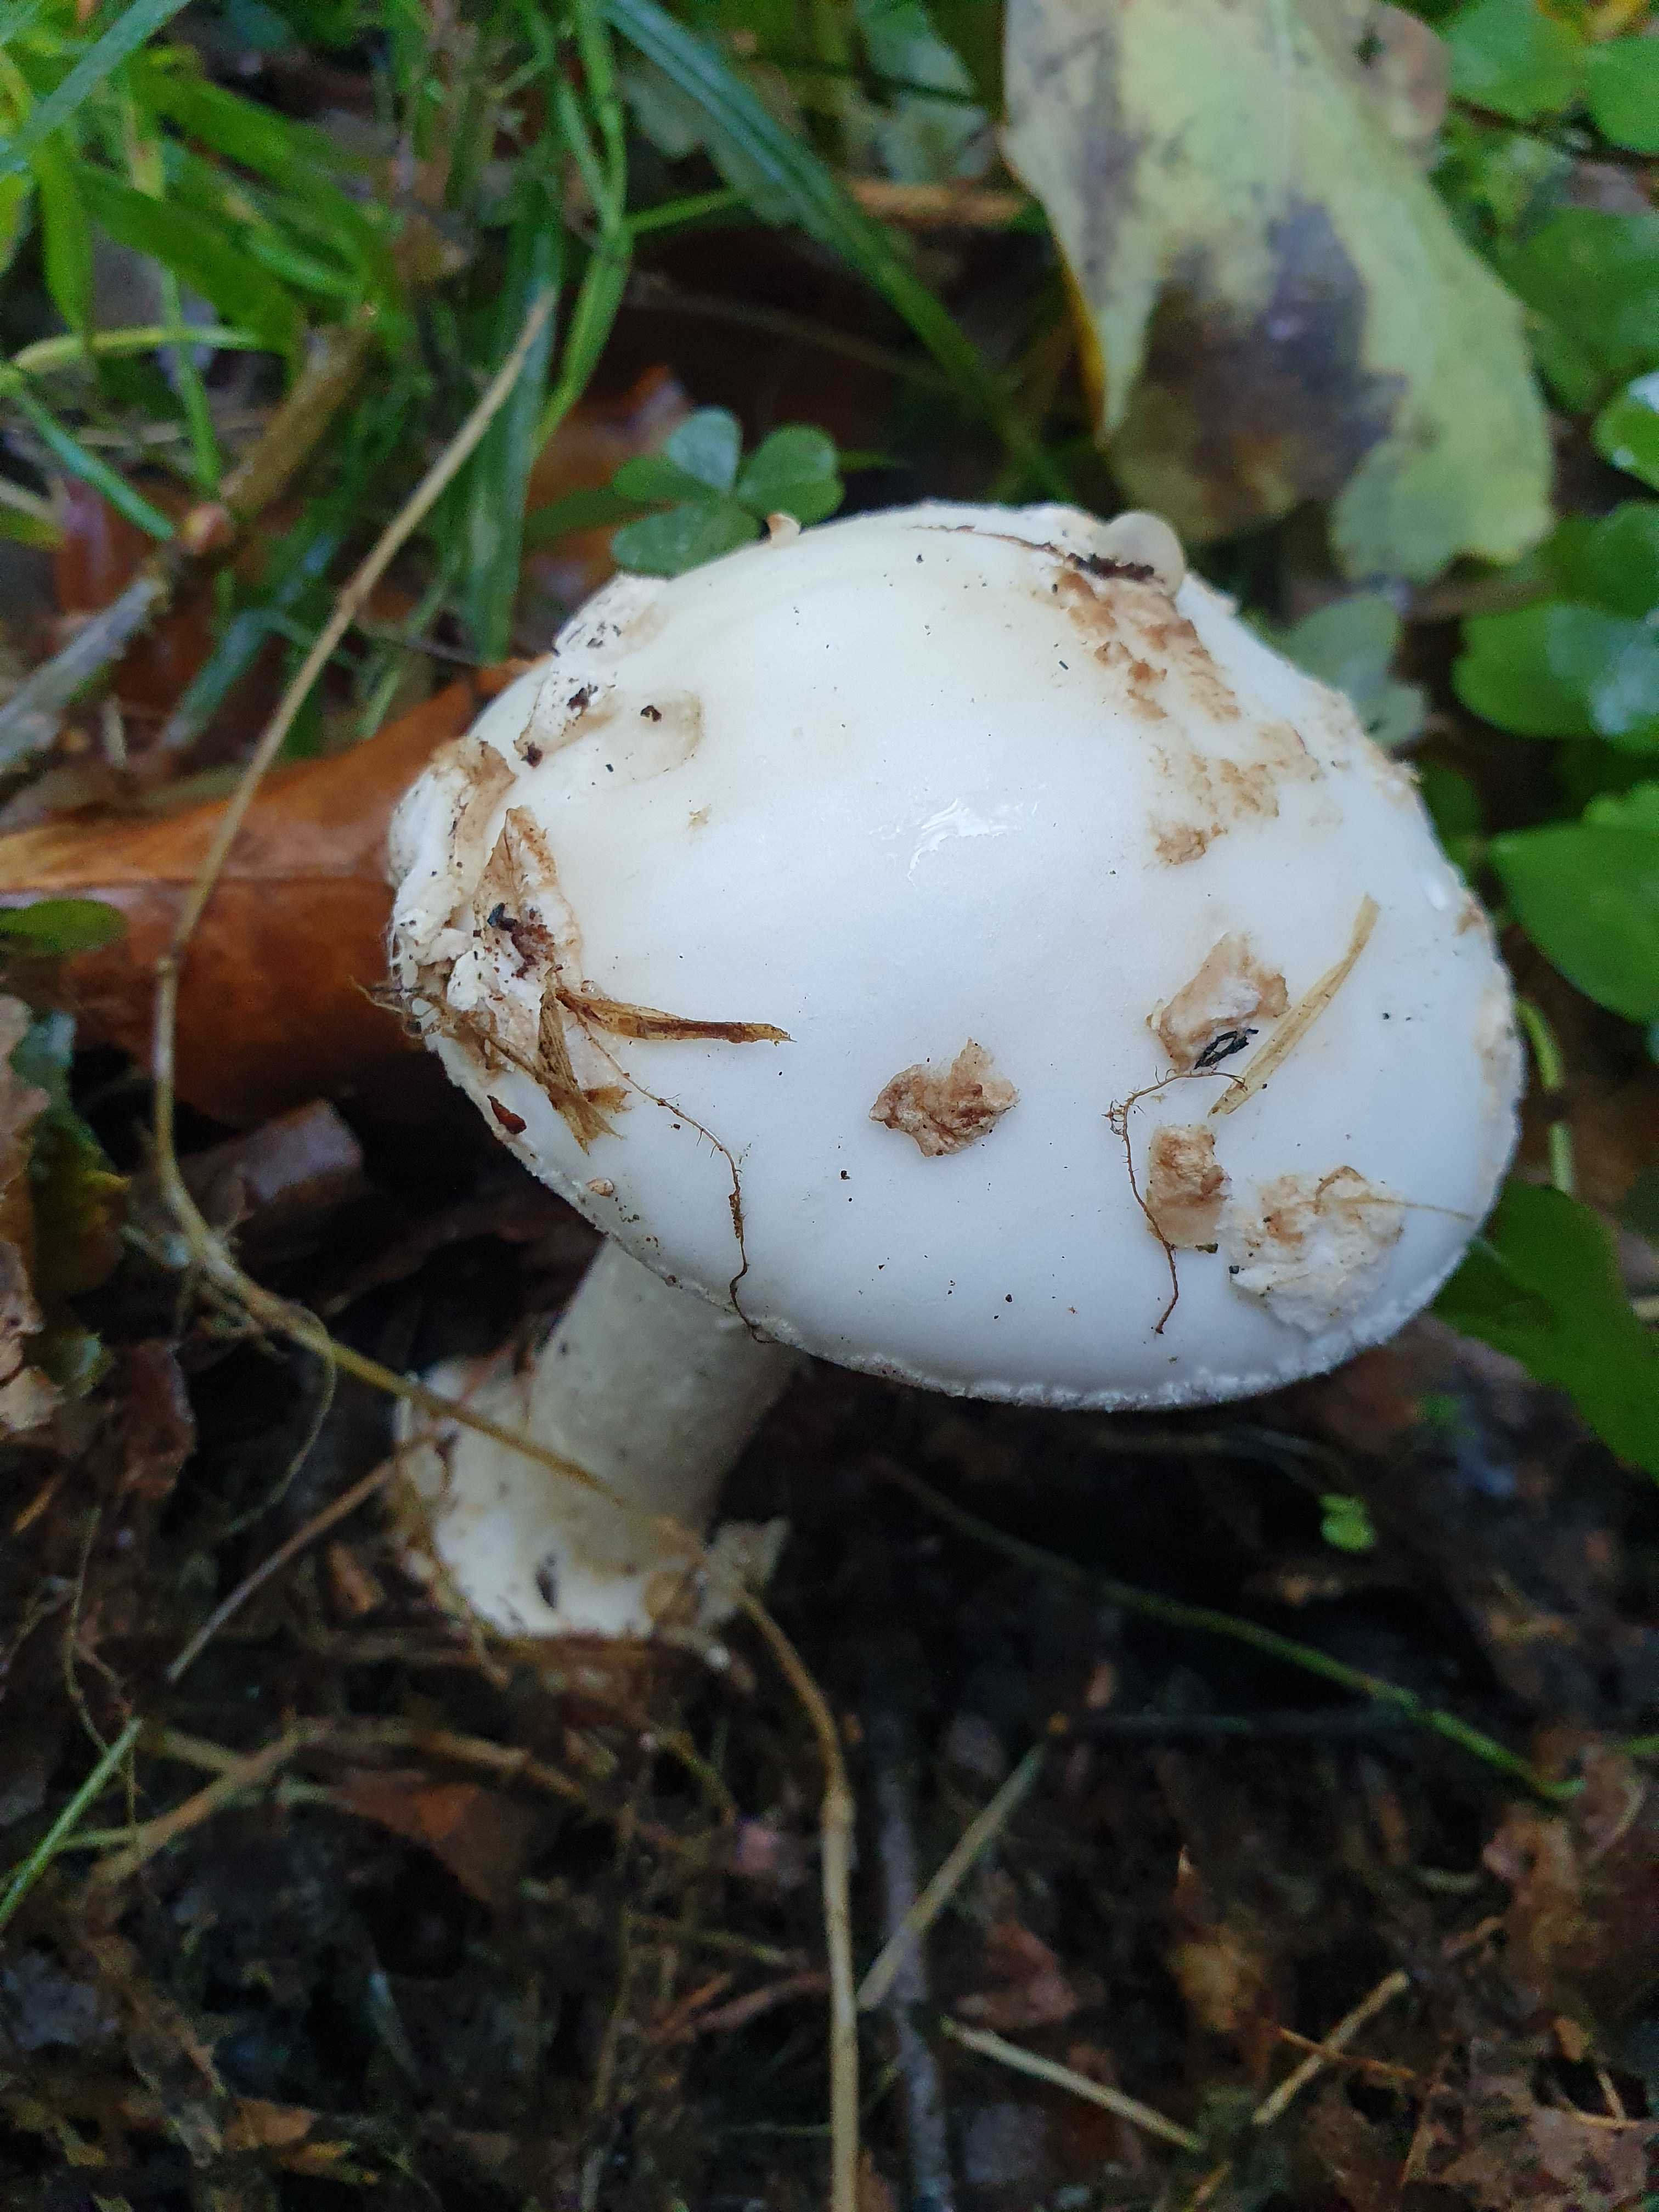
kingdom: Fungi
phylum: Basidiomycota
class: Agaricomycetes
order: Agaricales
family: Amanitaceae
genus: Amanita
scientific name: Amanita citrina
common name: kugleknoldet fluesvamp
